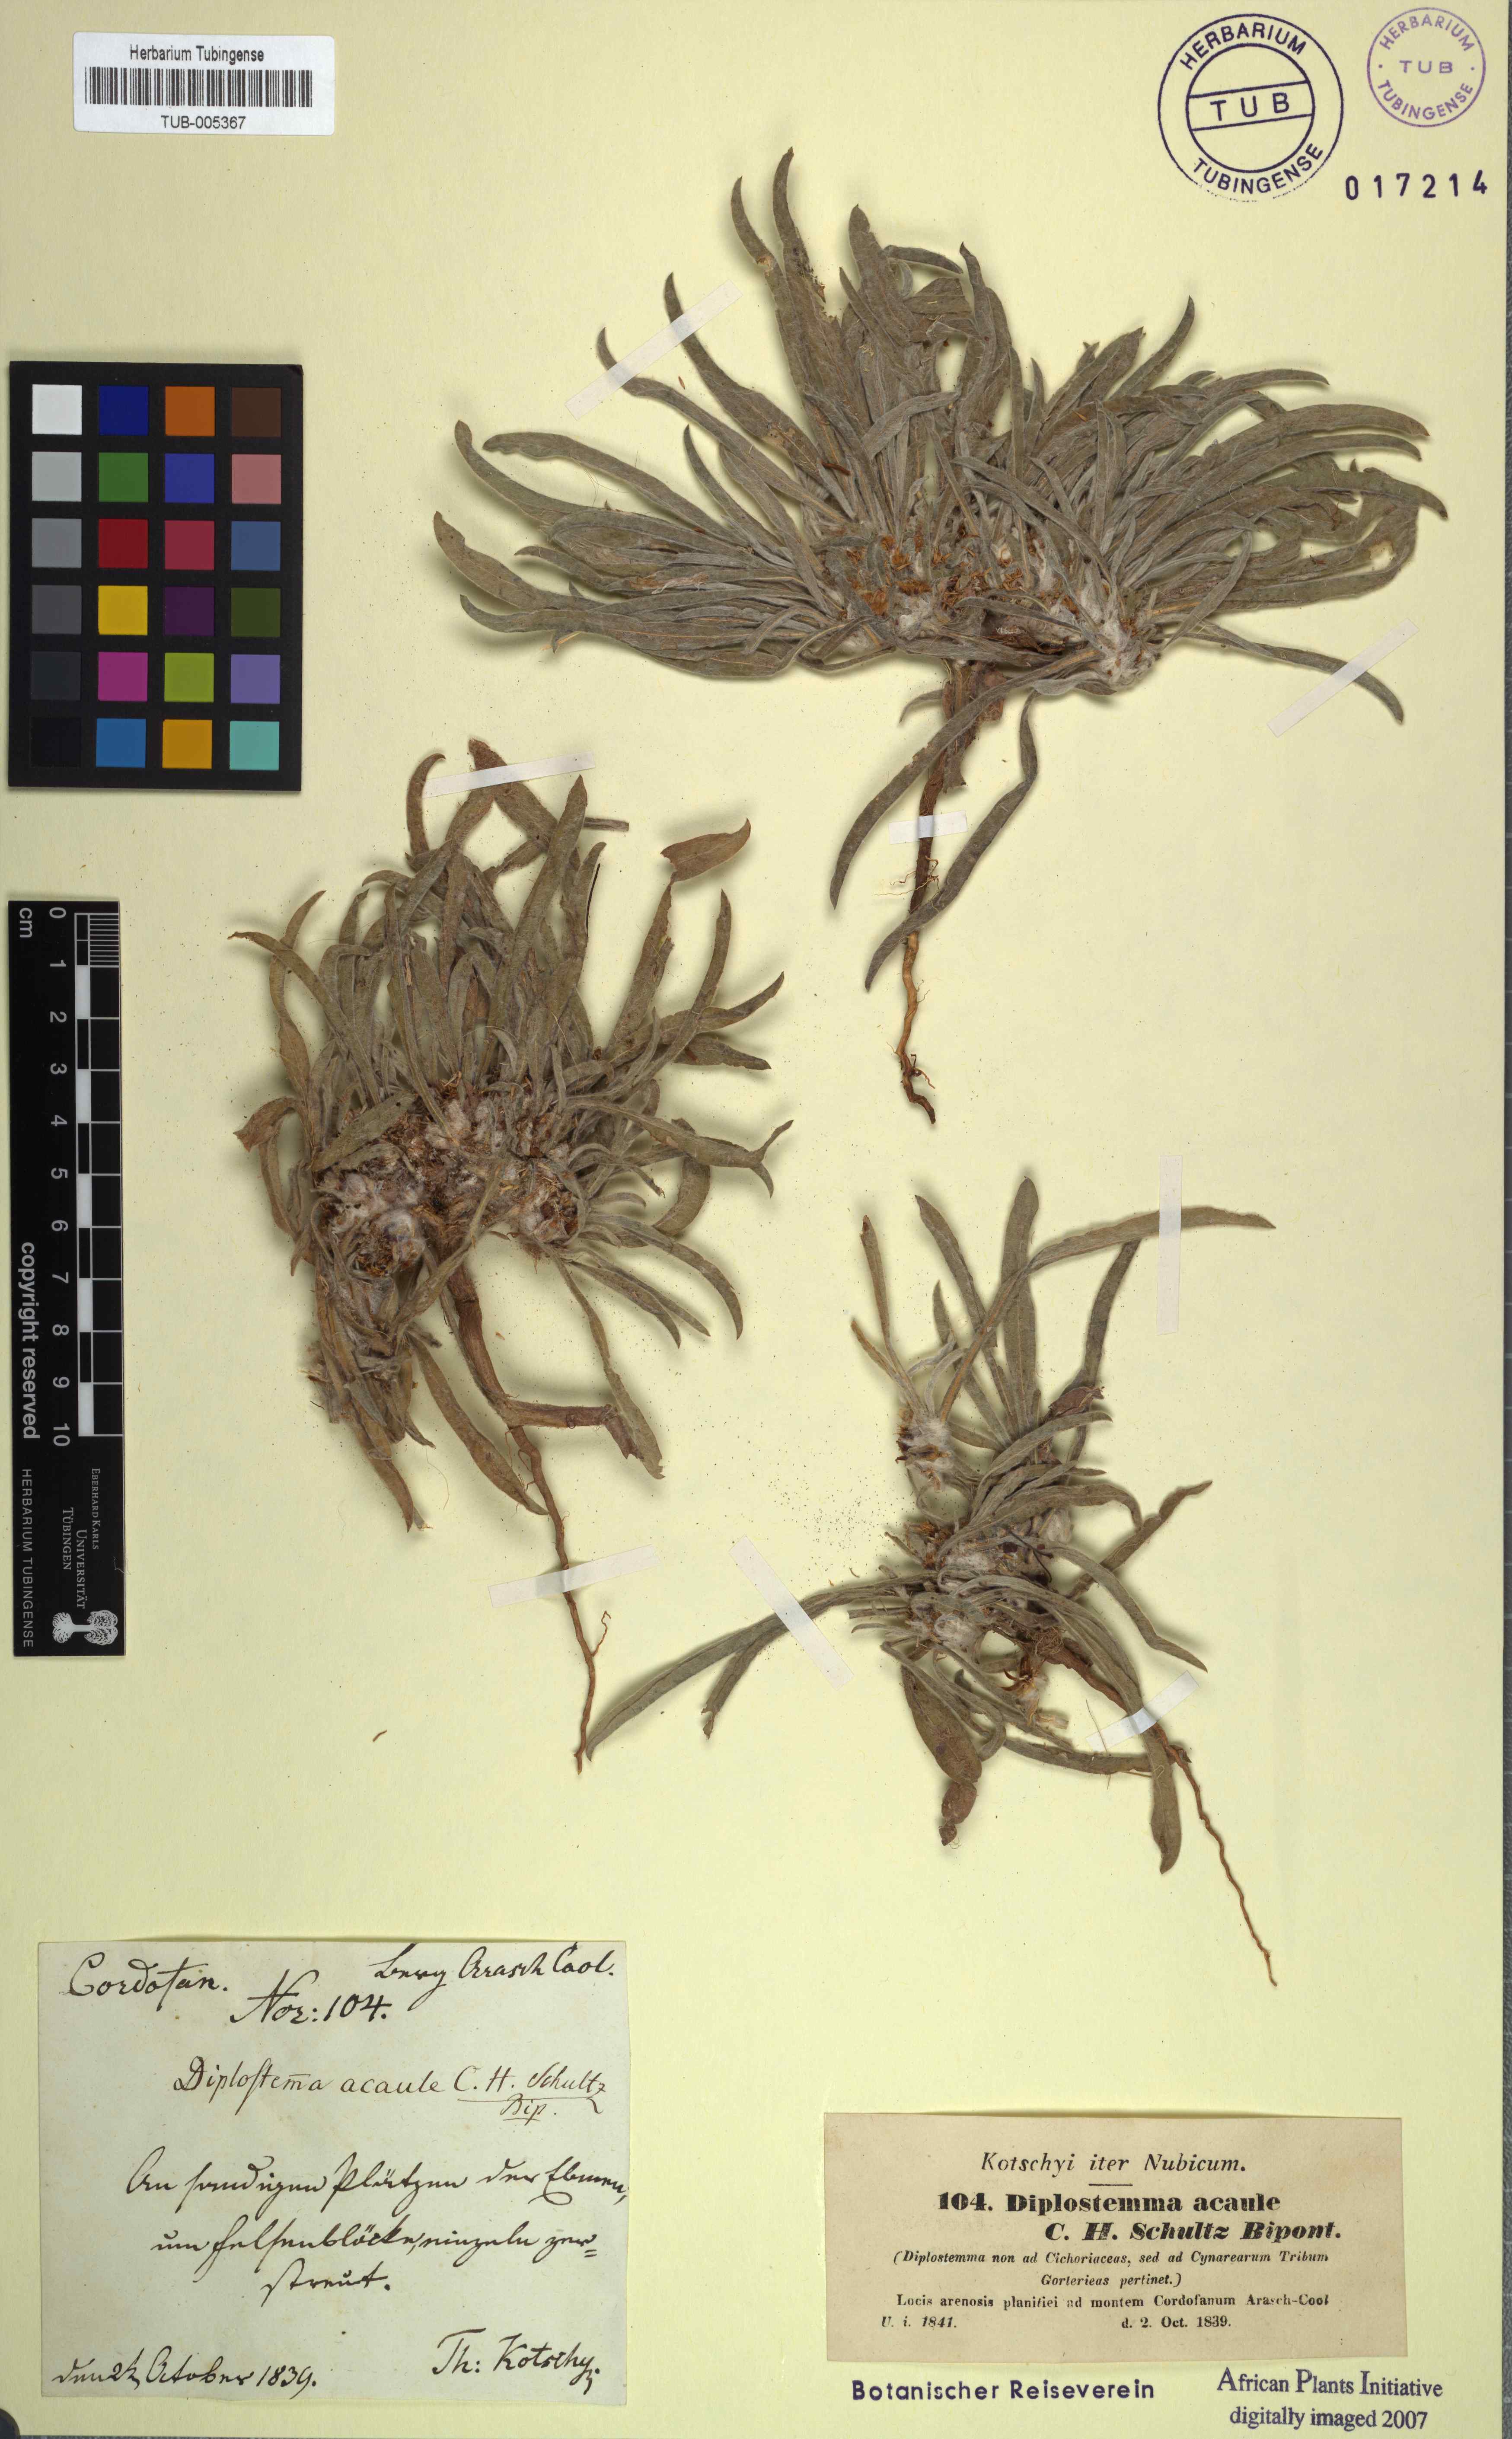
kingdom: Plantae
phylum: Tracheophyta
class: Magnoliopsida
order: Asterales
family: Asteraceae
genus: Geigeria
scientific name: Geigeria acaulis
